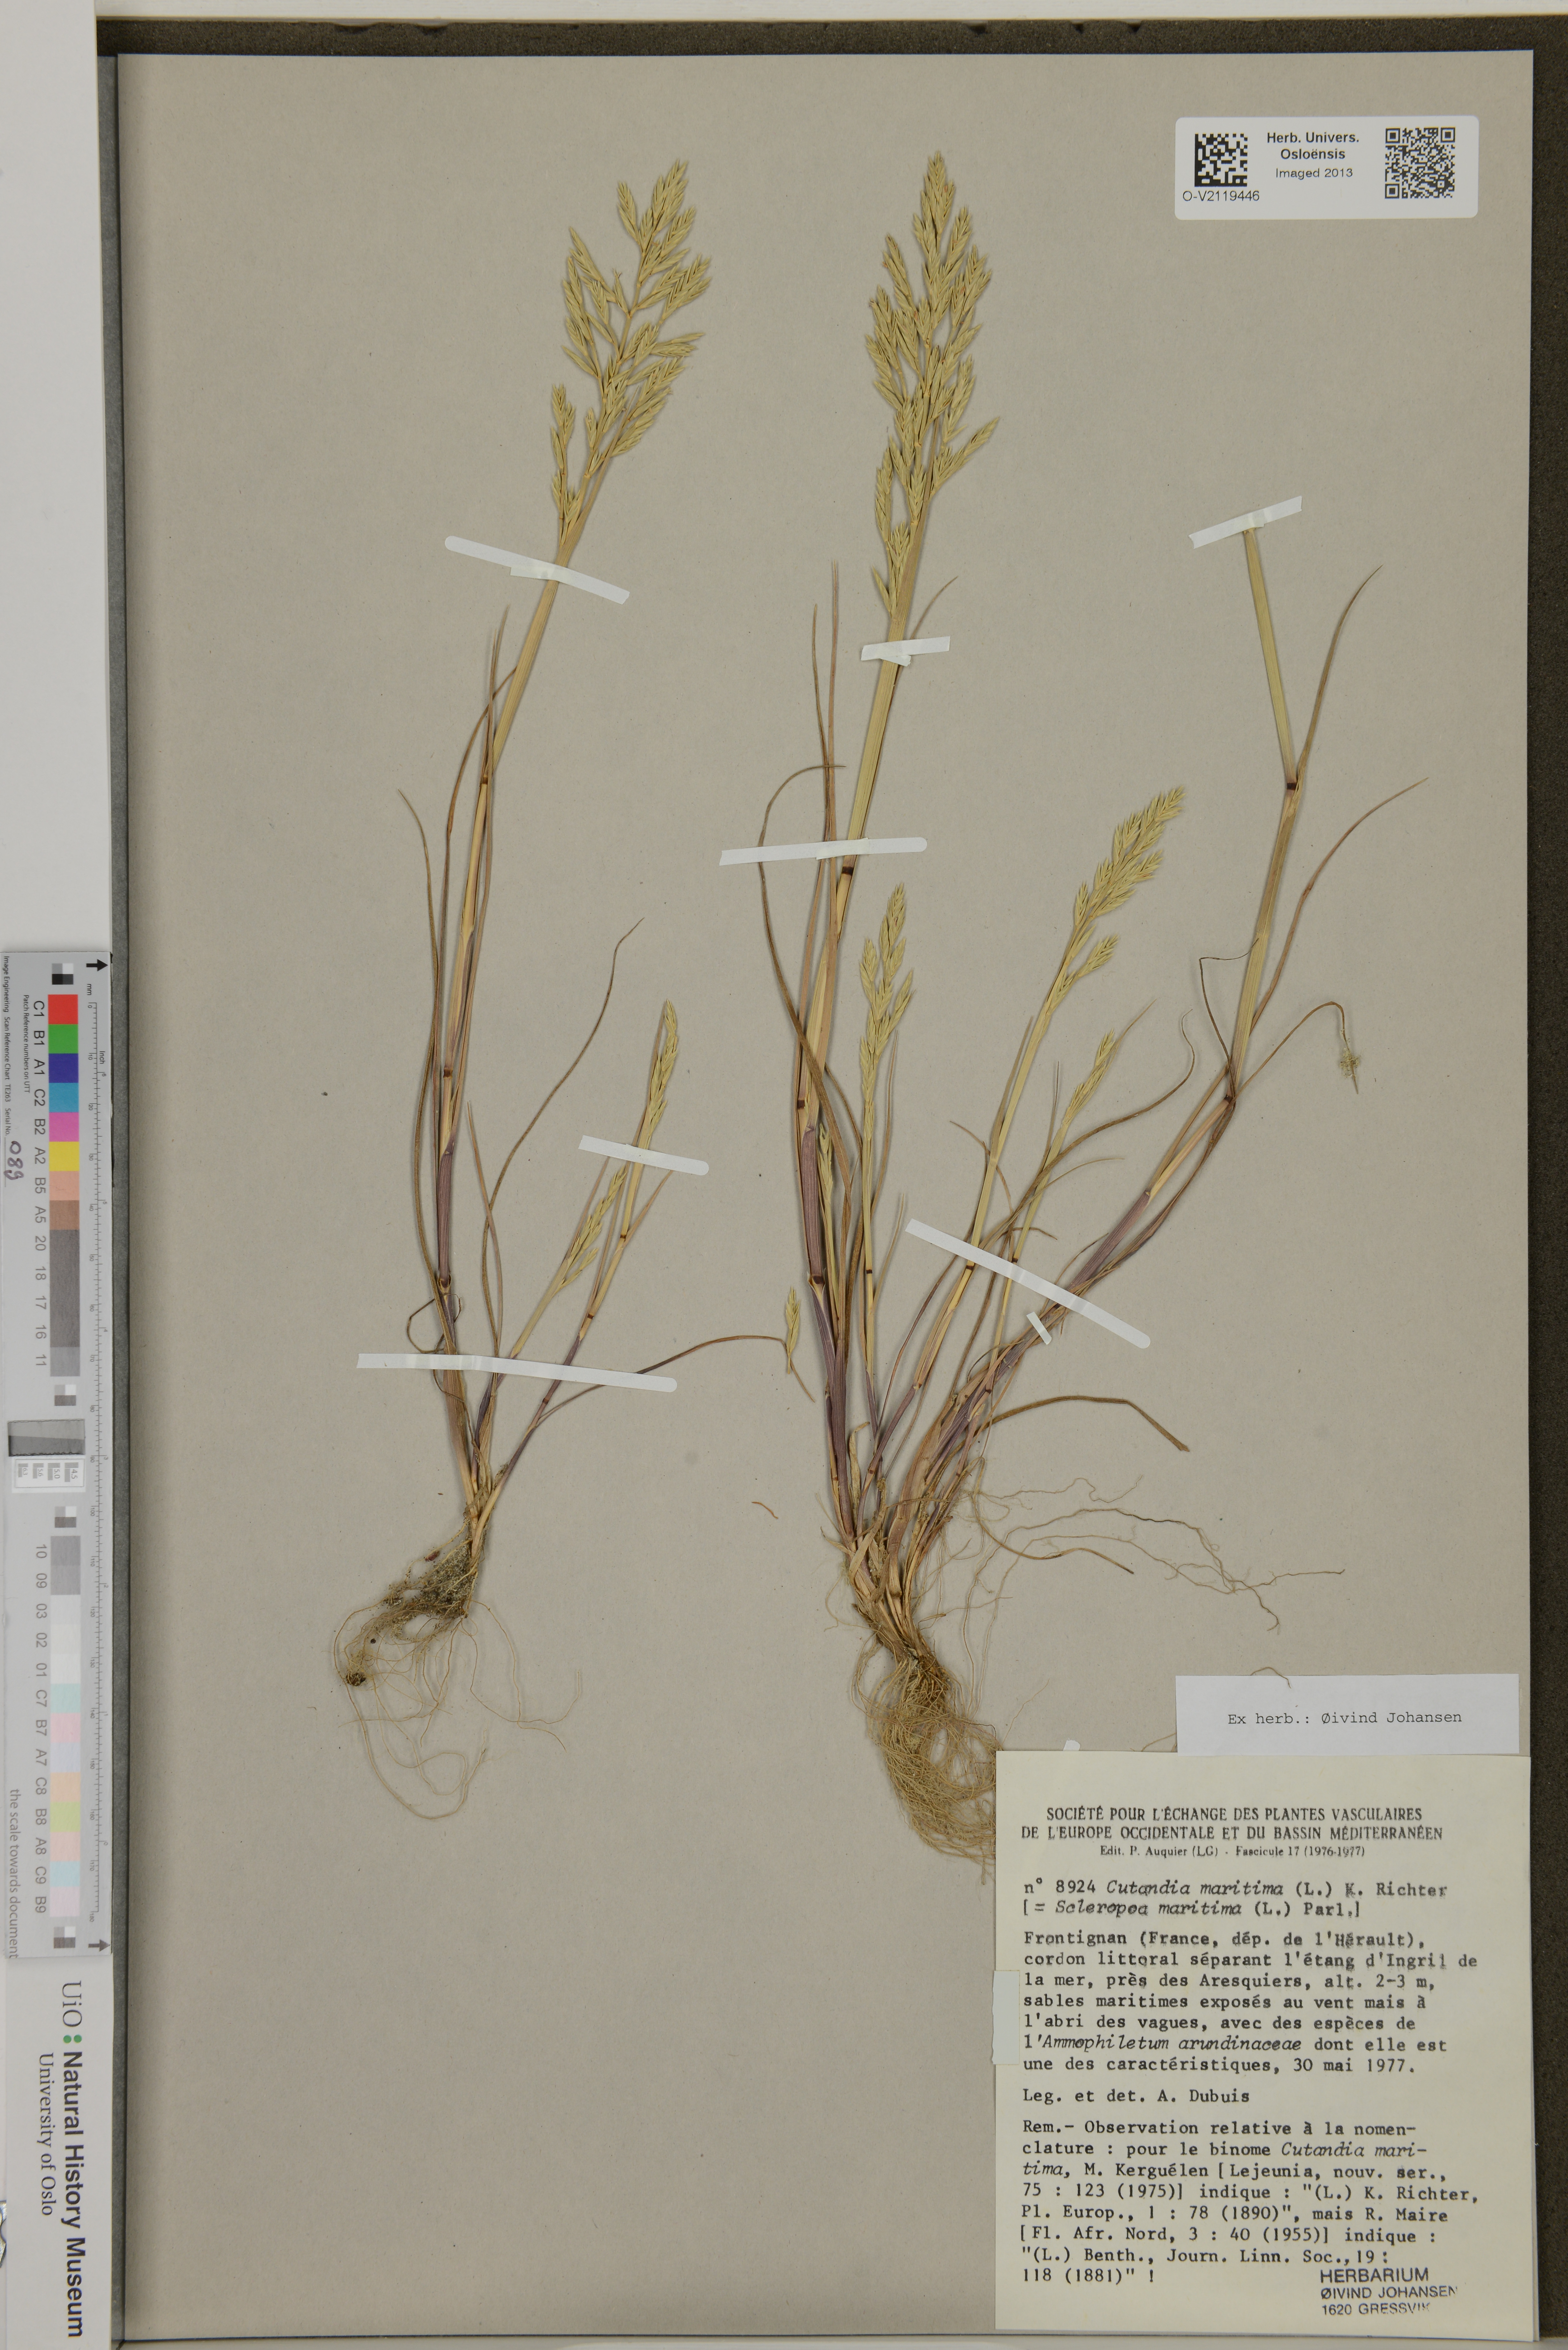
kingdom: Plantae
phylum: Tracheophyta
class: Liliopsida
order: Poales
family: Poaceae
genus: Cutandia
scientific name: Cutandia maritima
